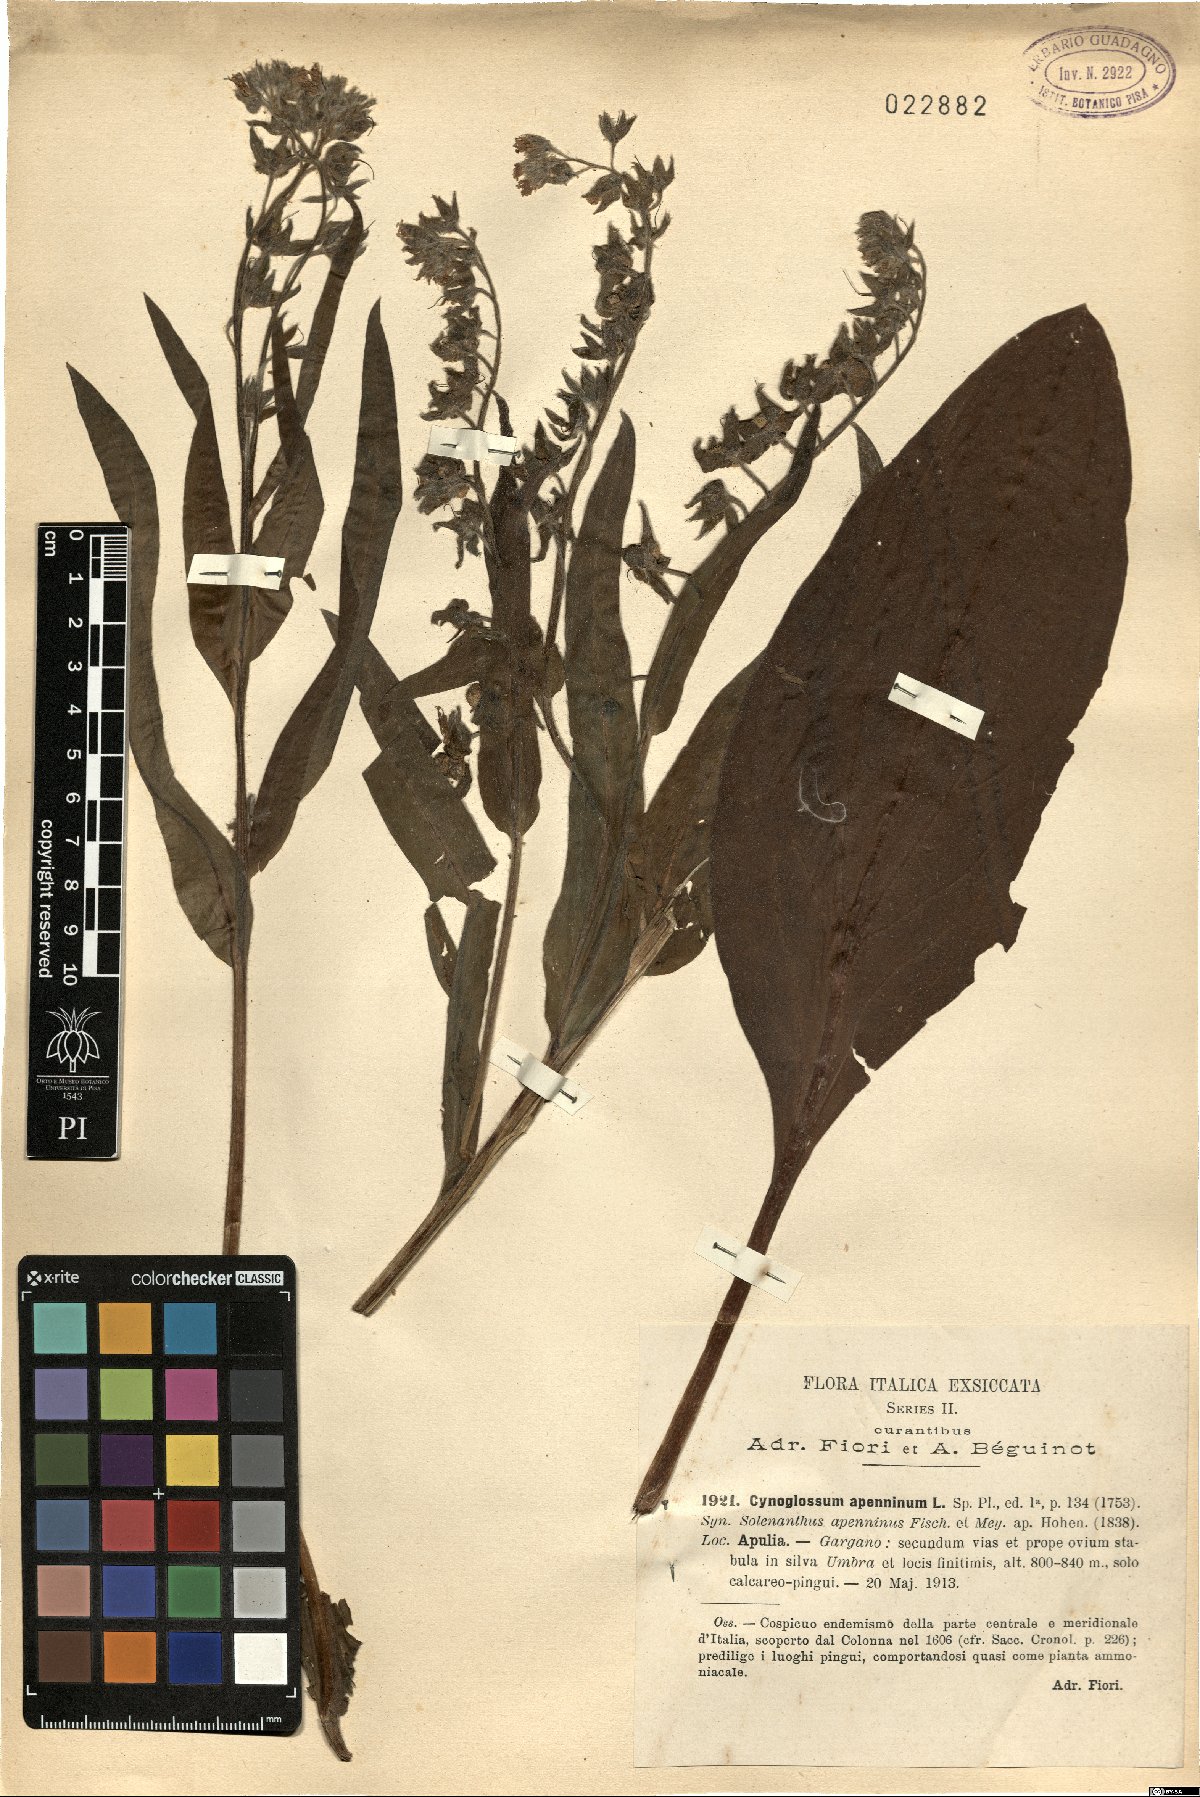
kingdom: Plantae
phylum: Tracheophyta
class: Magnoliopsida
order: Boraginales
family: Boraginaceae
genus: Solenanthus
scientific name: Solenanthus apenninus
